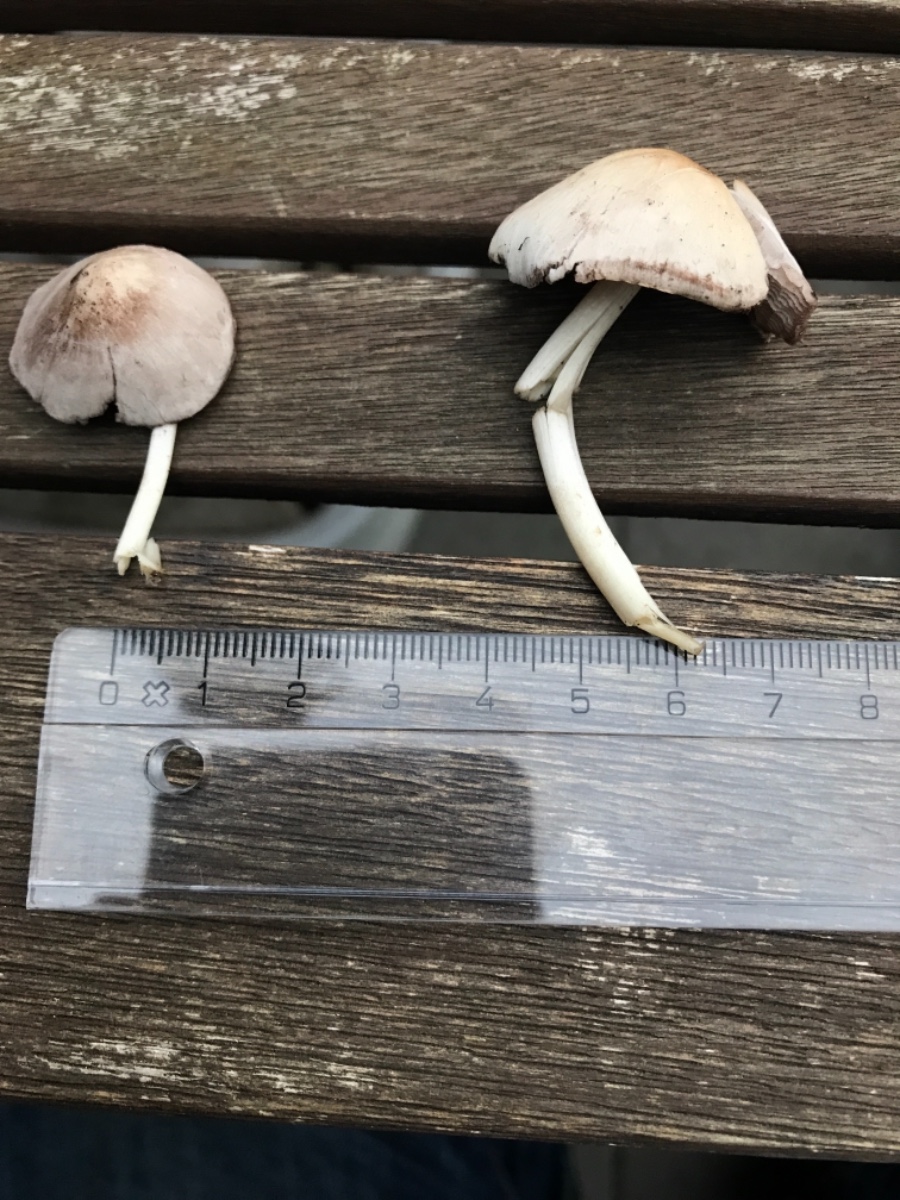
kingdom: Fungi
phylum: Basidiomycota
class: Agaricomycetes
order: Agaricales
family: Psathyrellaceae
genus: Candolleomyces
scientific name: Candolleomyces candolleanus
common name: Candolles mørkhat
